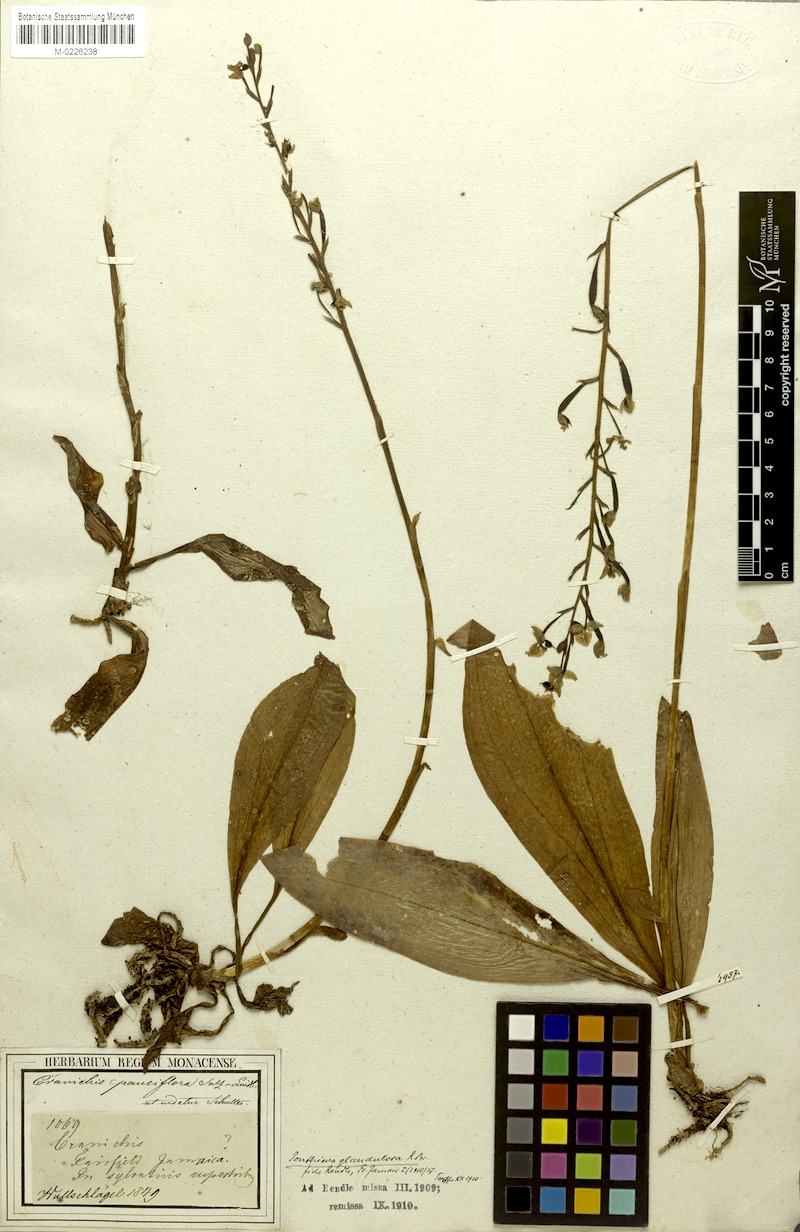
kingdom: Plantae
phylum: Tracheophyta
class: Liliopsida
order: Asparagales
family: Orchidaceae
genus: Ponthieva
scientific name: Ponthieva racemosa
